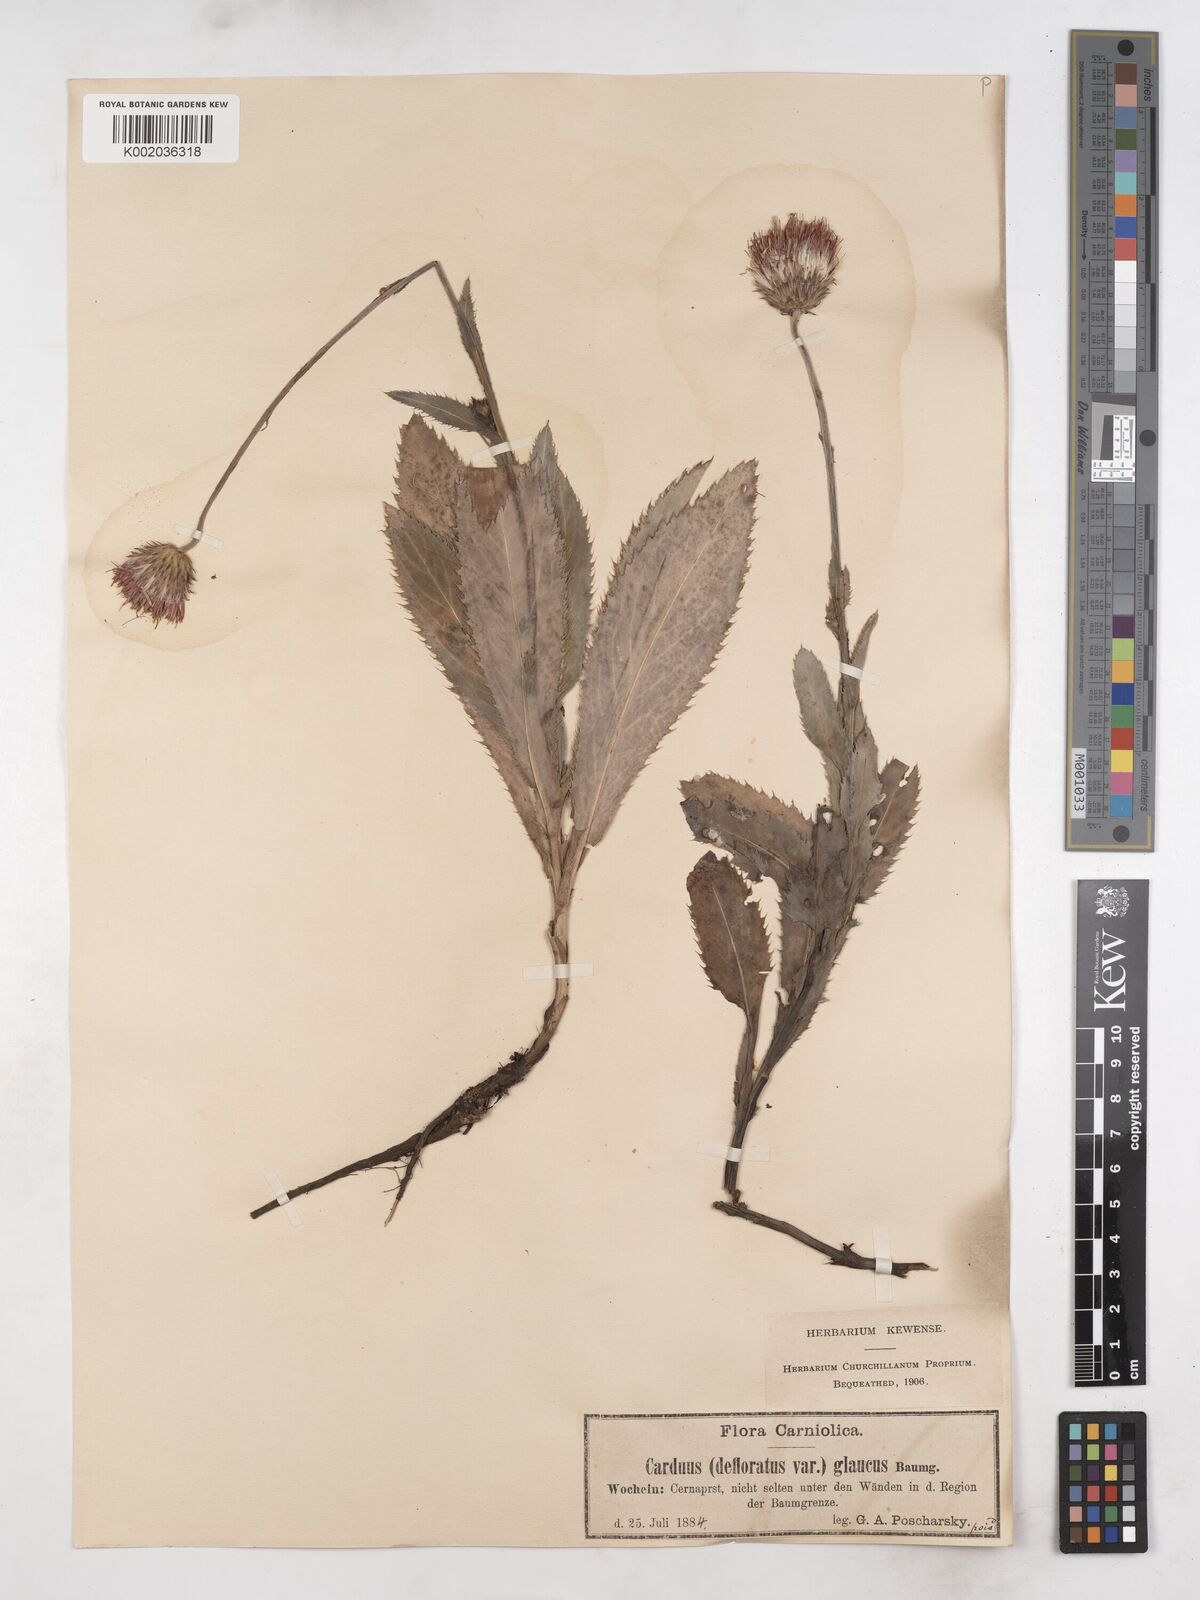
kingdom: Plantae
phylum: Tracheophyta
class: Magnoliopsida
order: Asterales
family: Asteraceae
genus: Carduus
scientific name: Carduus defloratus
